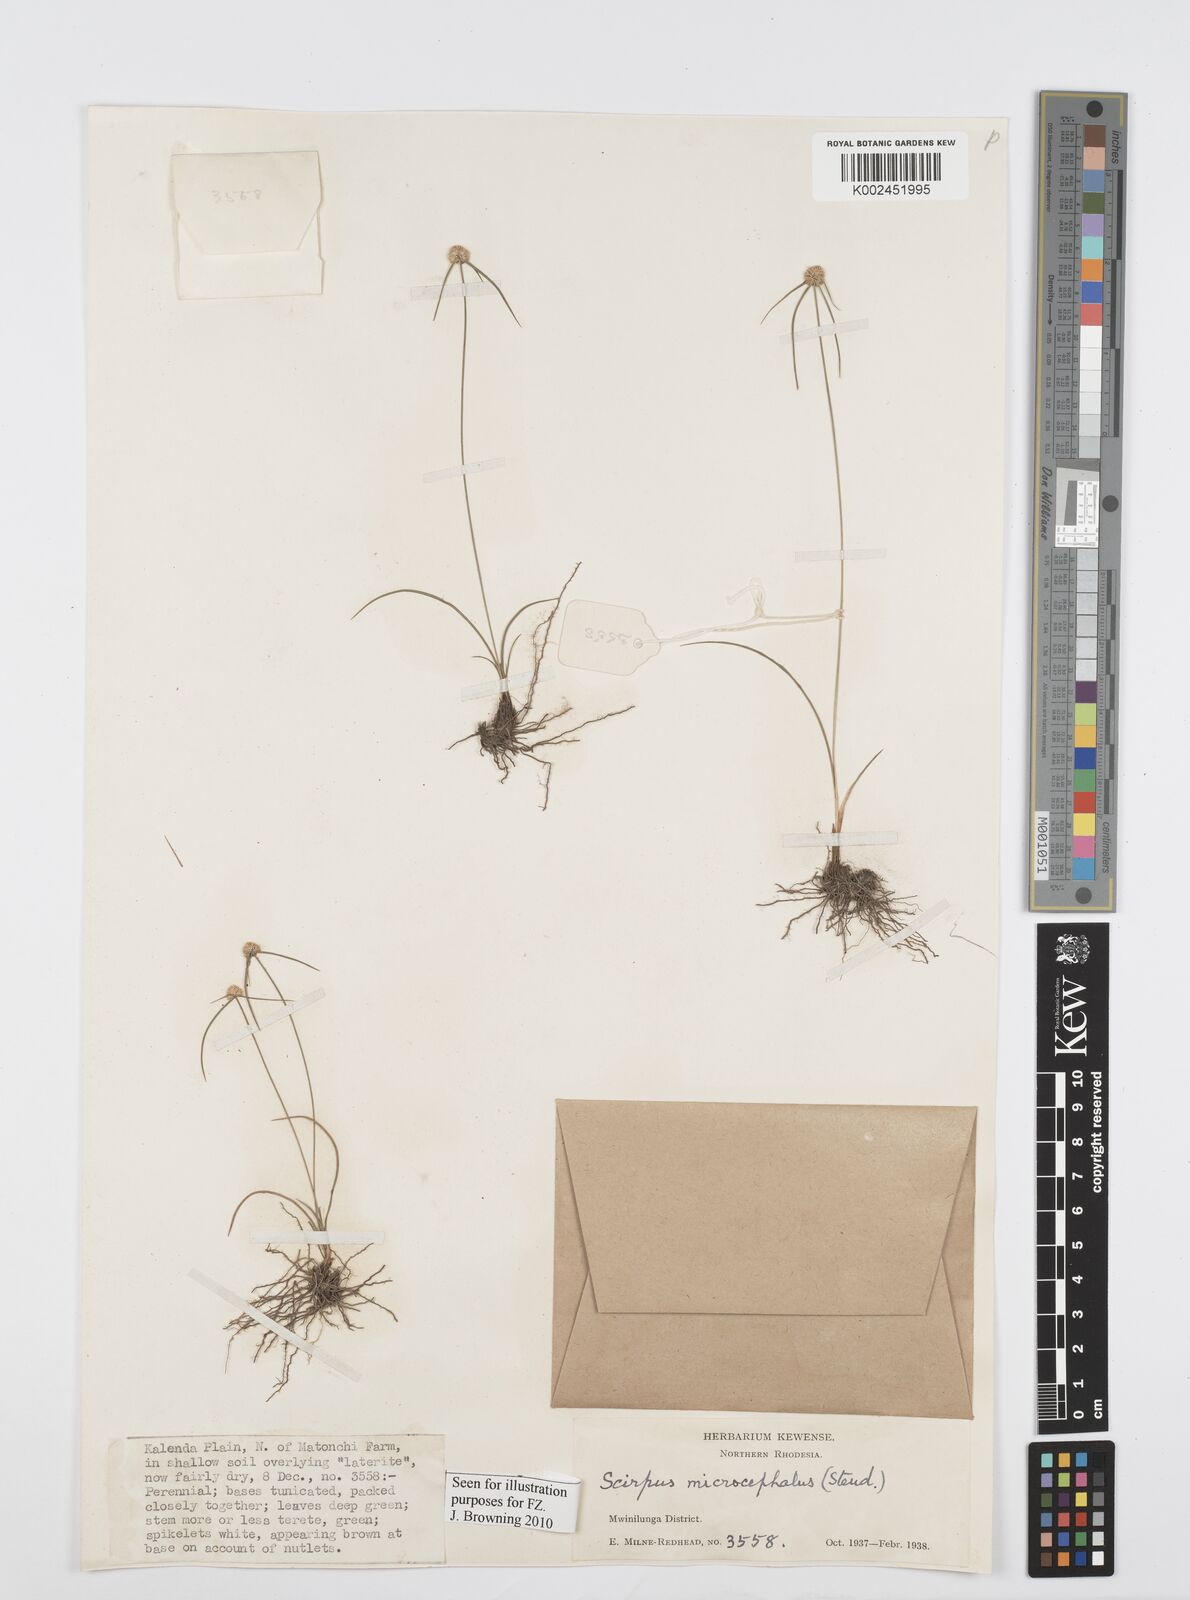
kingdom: Plantae
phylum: Tracheophyta
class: Liliopsida
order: Poales
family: Cyperaceae
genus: Cyperus
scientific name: Cyperus microcephalus
